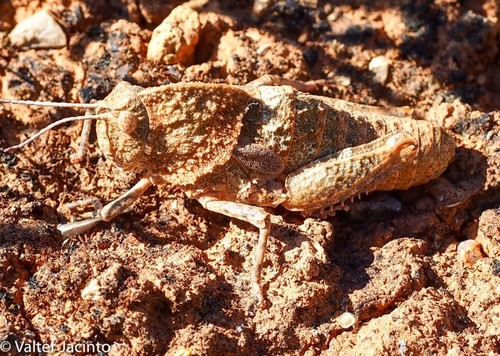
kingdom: Animalia
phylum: Arthropoda
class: Insecta
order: Orthoptera
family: Pamphagidae
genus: Ocnerodes
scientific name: Ocnerodes fallaciosus
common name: Misleading stone grasshopper
